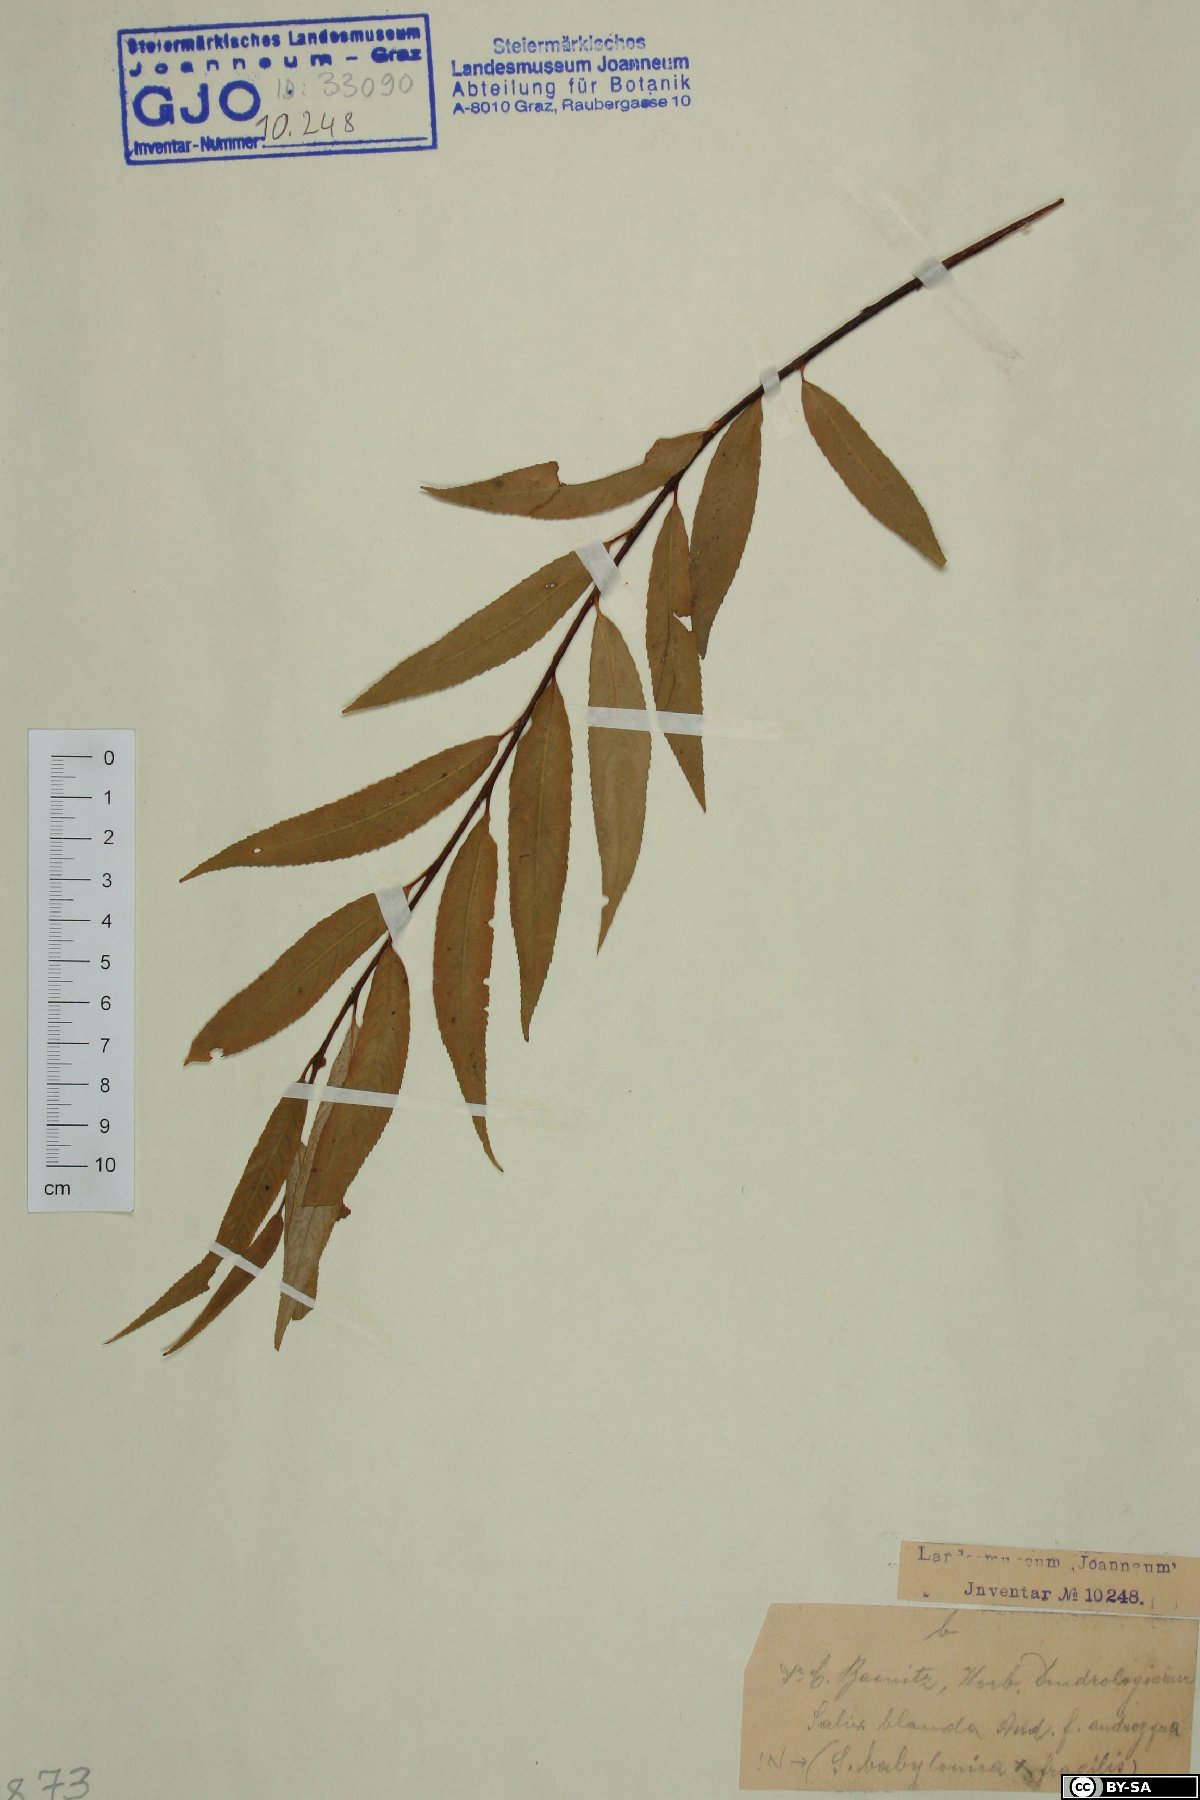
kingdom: Plantae
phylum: Tracheophyta
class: Magnoliopsida
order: Malpighiales
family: Salicaceae
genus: Salix
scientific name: Salix pendulina
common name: Wisconsin weeping willow
